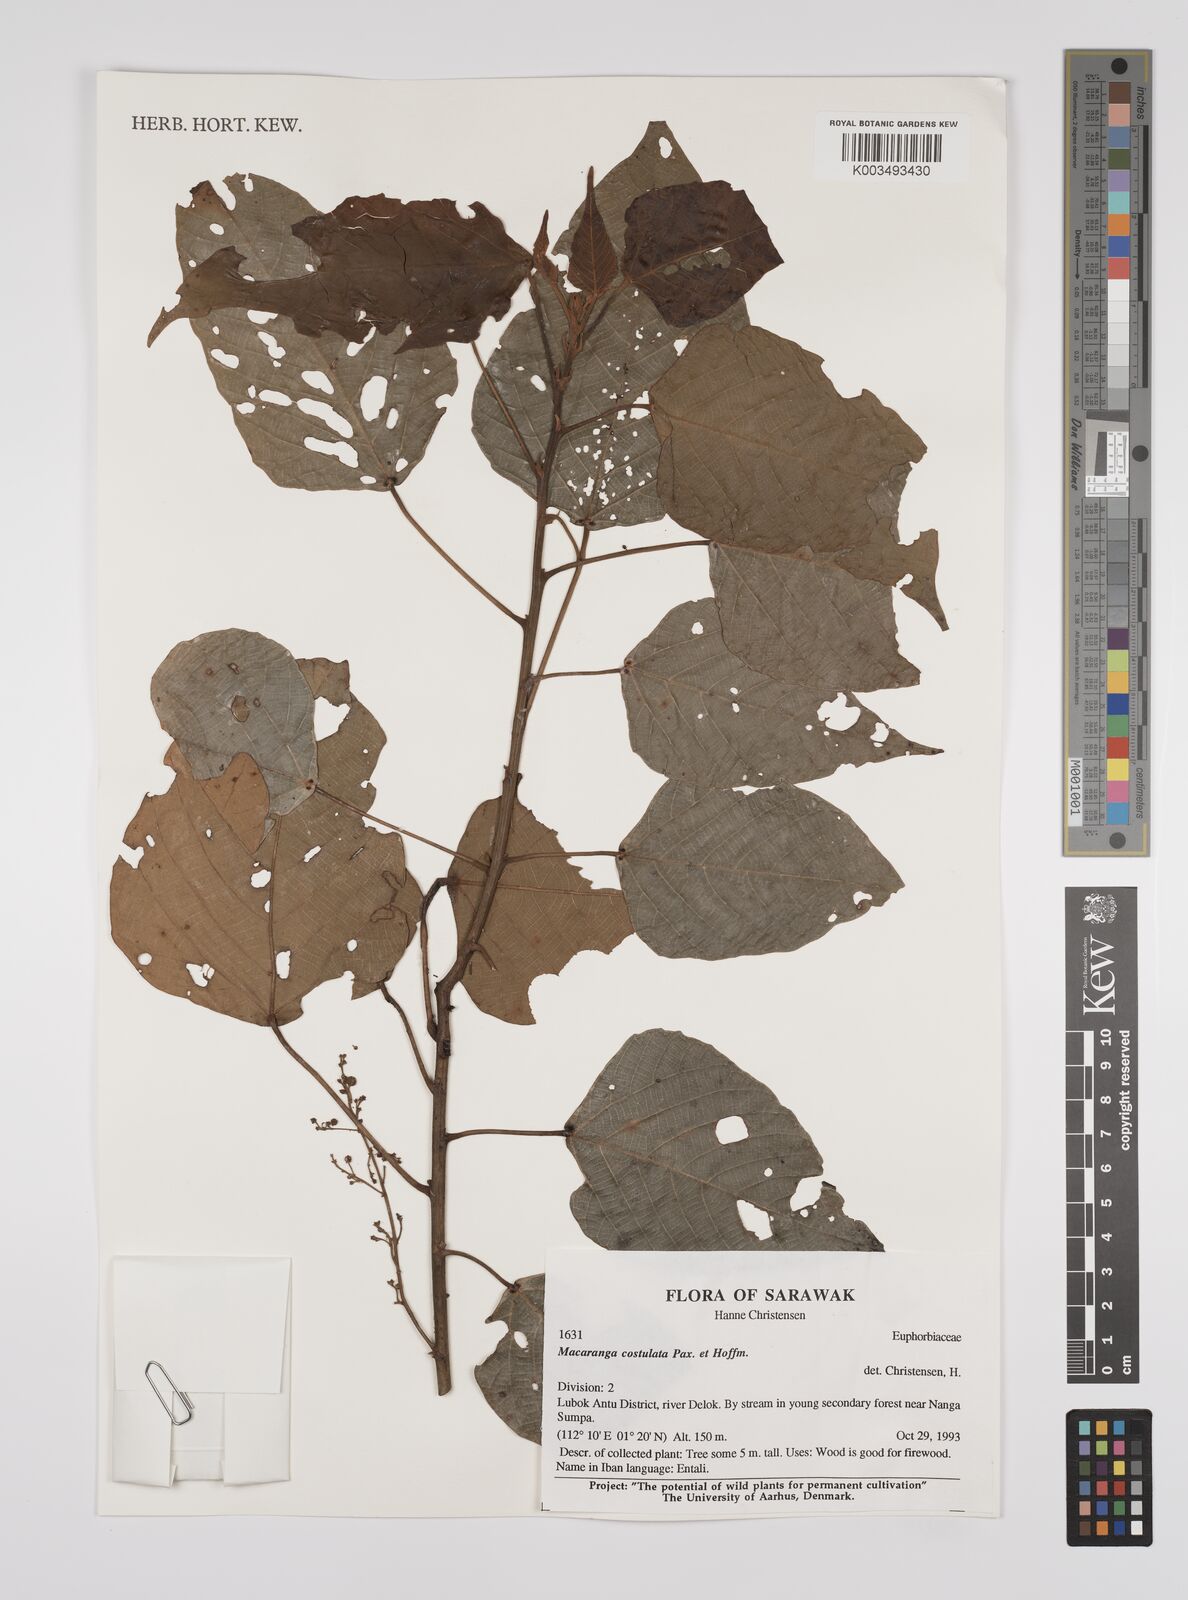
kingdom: Plantae
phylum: Tracheophyta
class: Magnoliopsida
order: Malpighiales
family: Euphorbiaceae
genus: Macaranga
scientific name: Macaranga costulata
